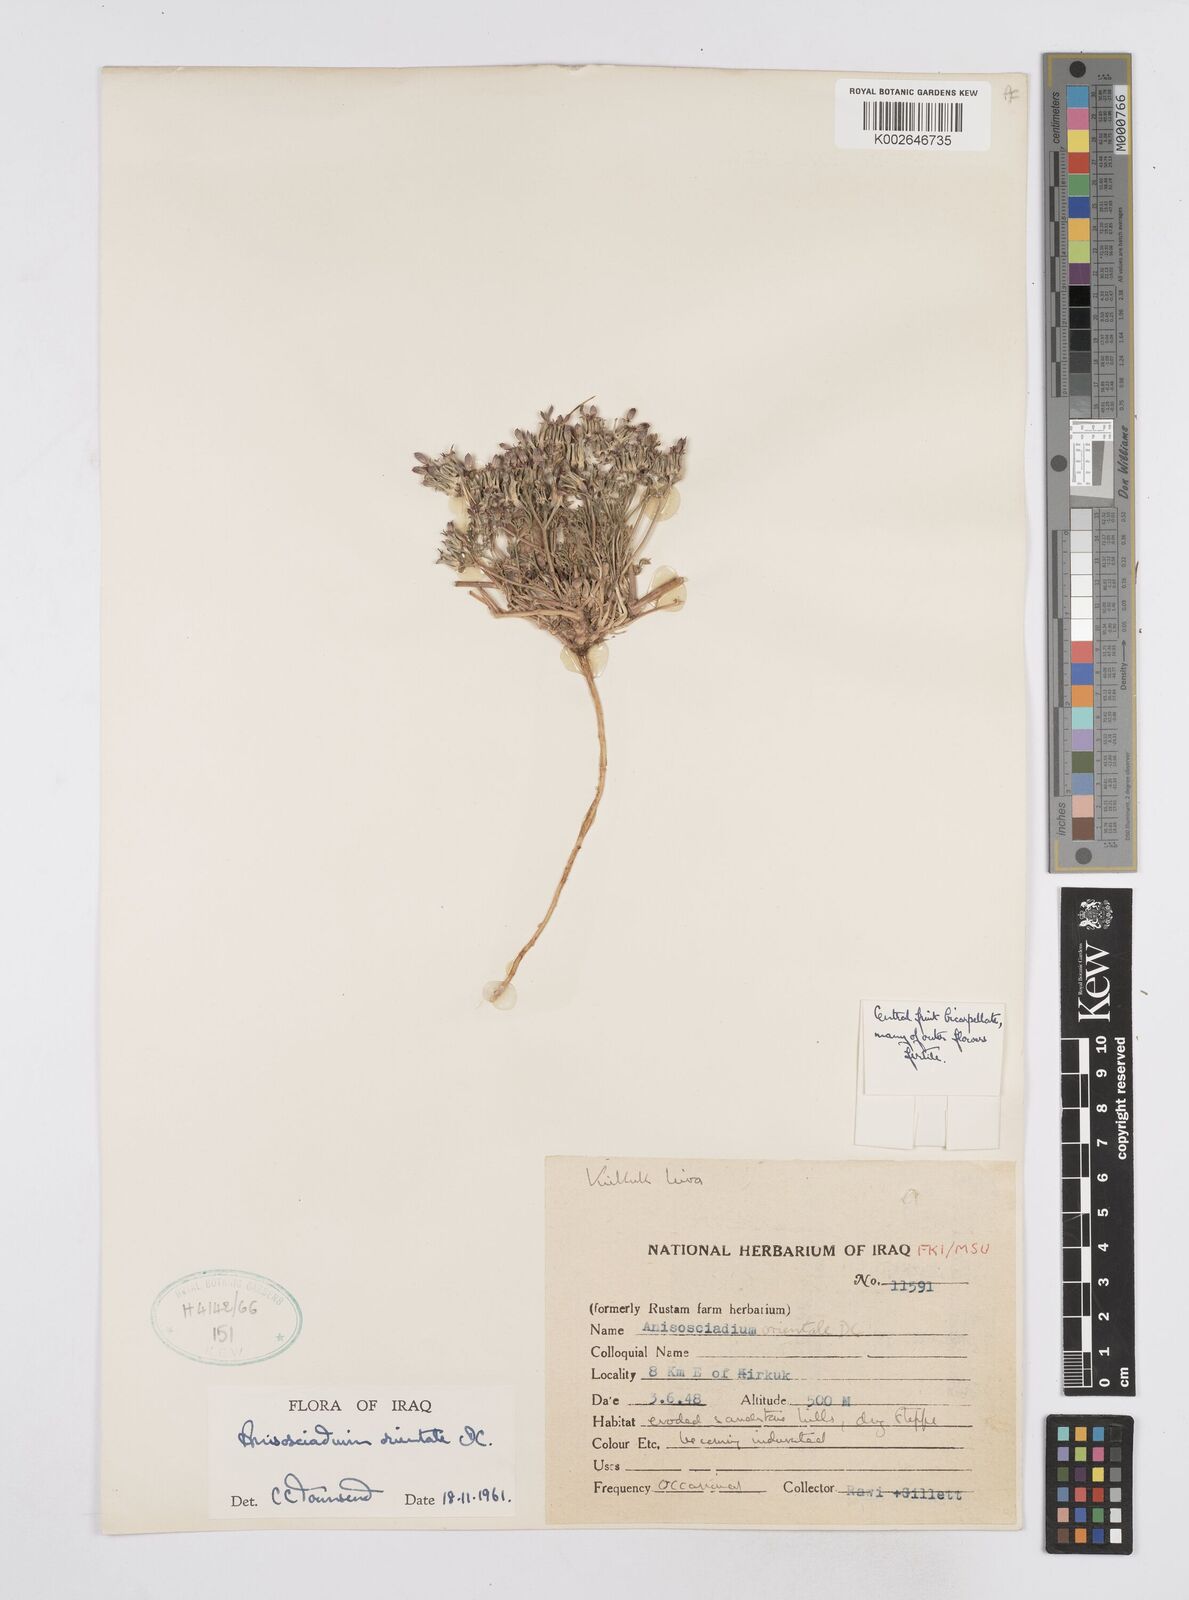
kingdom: Plantae
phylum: Tracheophyta
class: Magnoliopsida
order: Apiales
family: Apiaceae
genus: Anisosciadium
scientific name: Anisosciadium orientale
